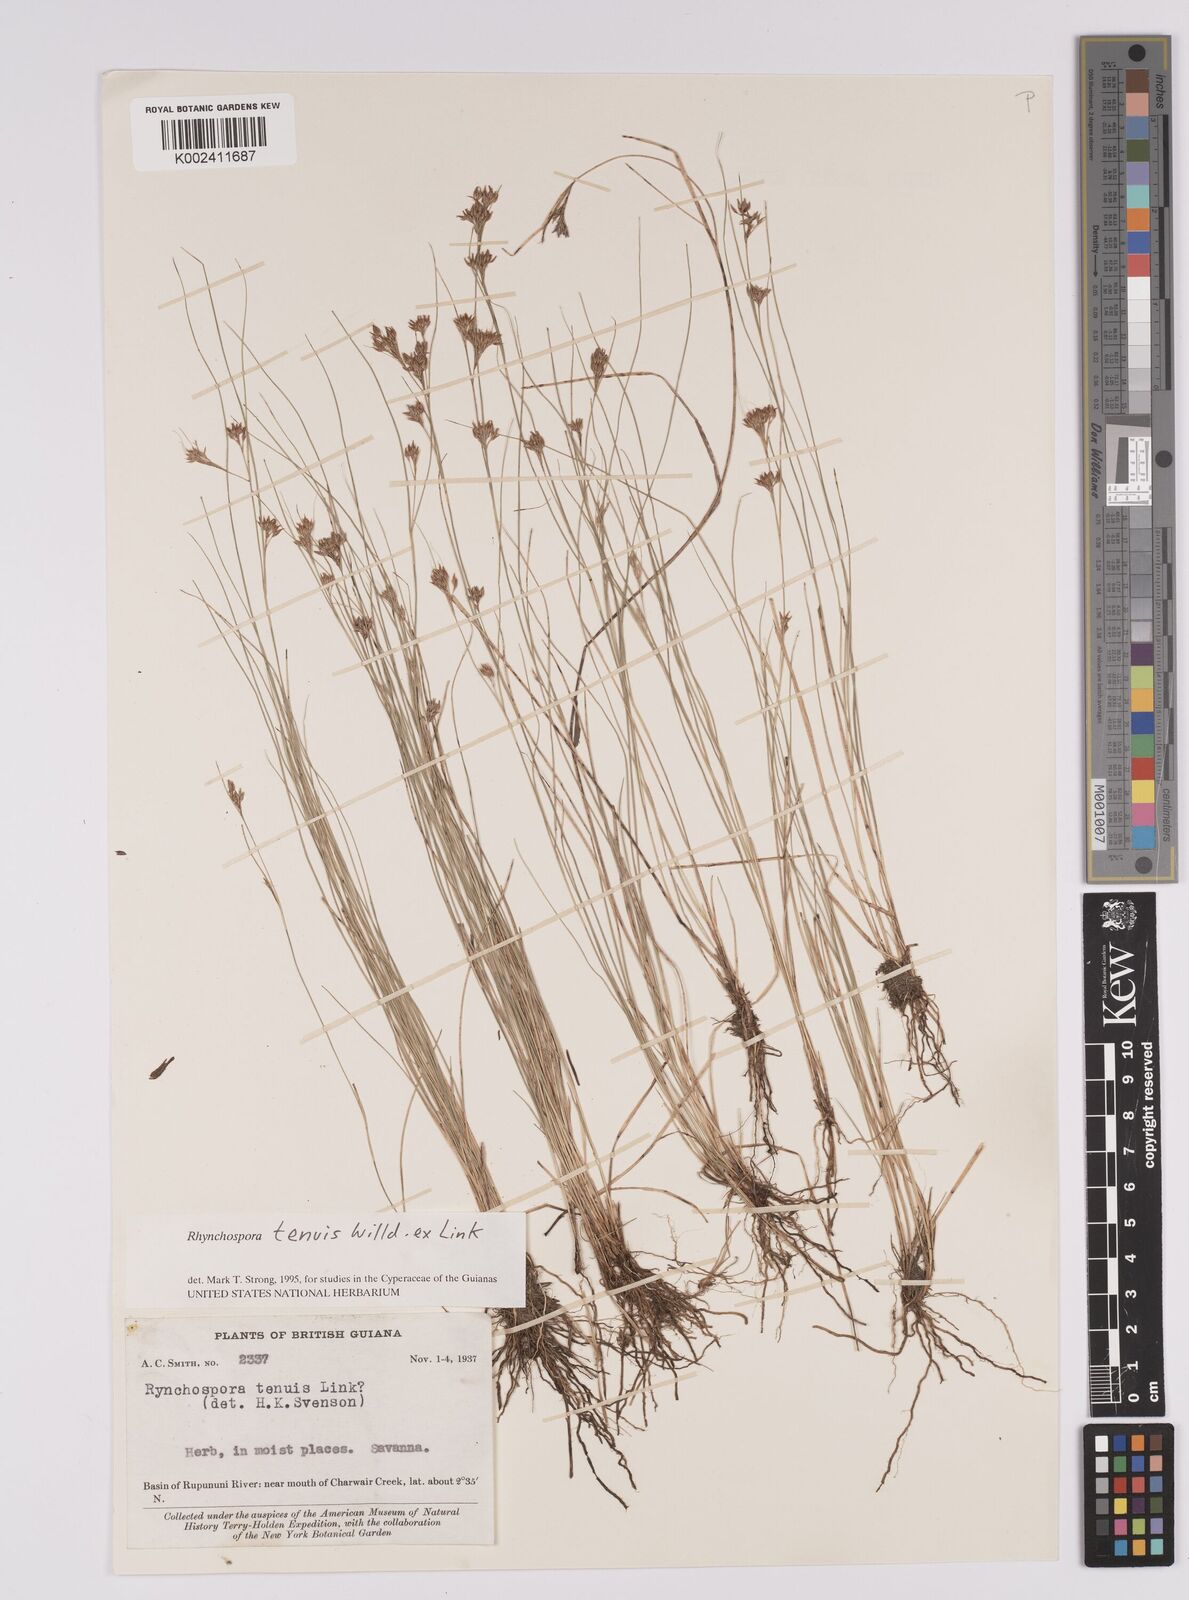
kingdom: Plantae
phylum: Tracheophyta
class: Liliopsida
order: Poales
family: Cyperaceae
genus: Rhynchospora
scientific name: Rhynchospora tenuis
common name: Quill beaksedge
